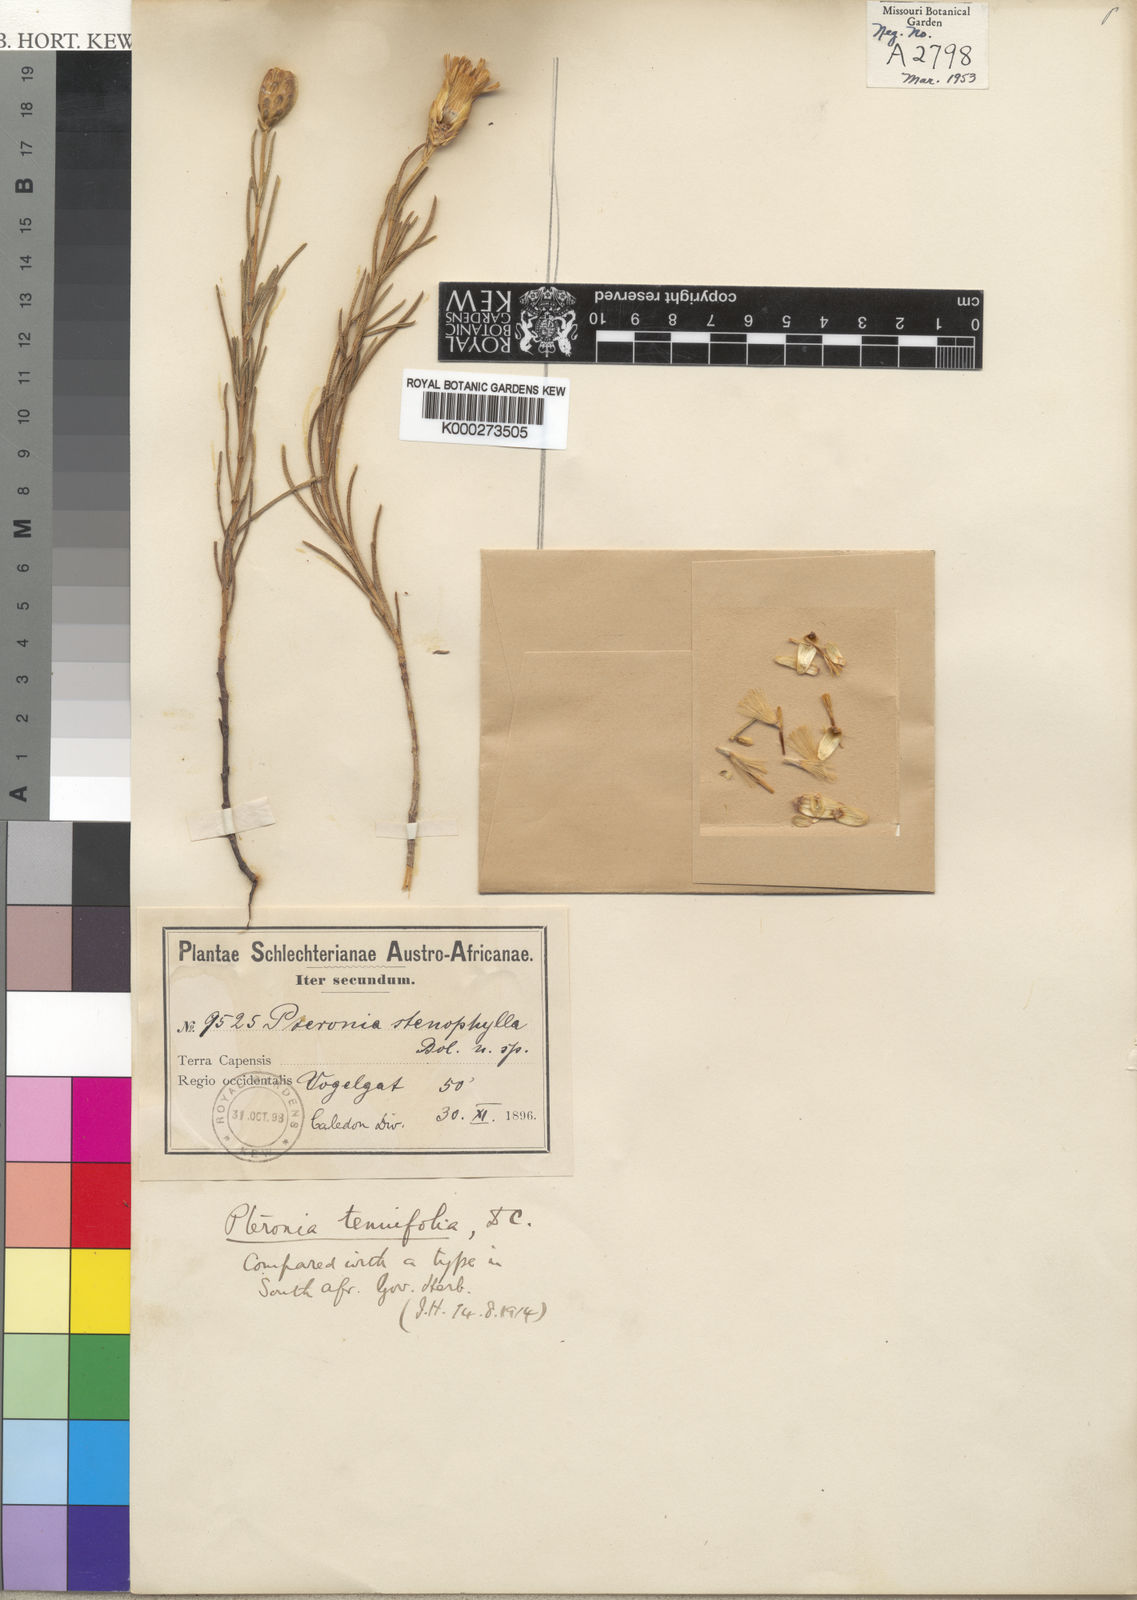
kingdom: Plantae
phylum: Tracheophyta
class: Magnoliopsida
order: Asterales
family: Asteraceae
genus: Pteronia
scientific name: Pteronia tenuifolia
